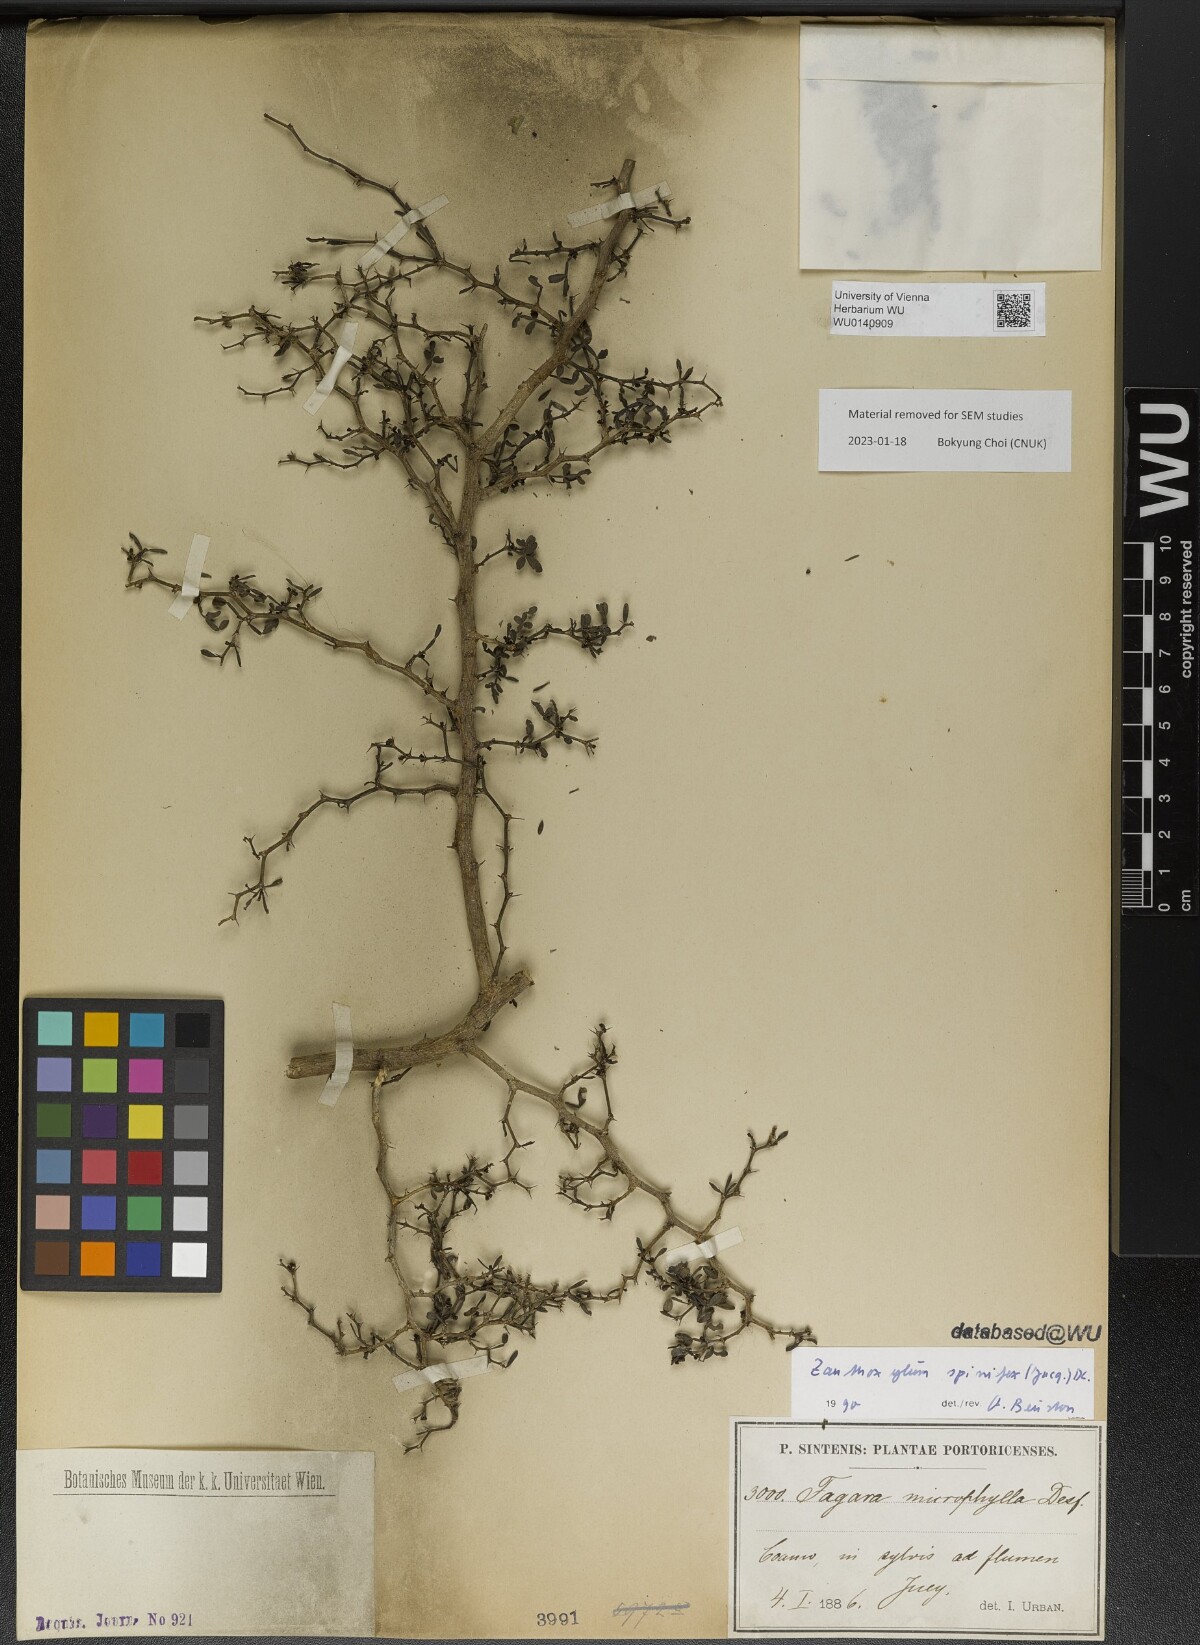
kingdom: Plantae
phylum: Tracheophyta
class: Magnoliopsida
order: Sapindales
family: Rutaceae
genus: Zanthoxylum
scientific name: Zanthoxylum tragodes
